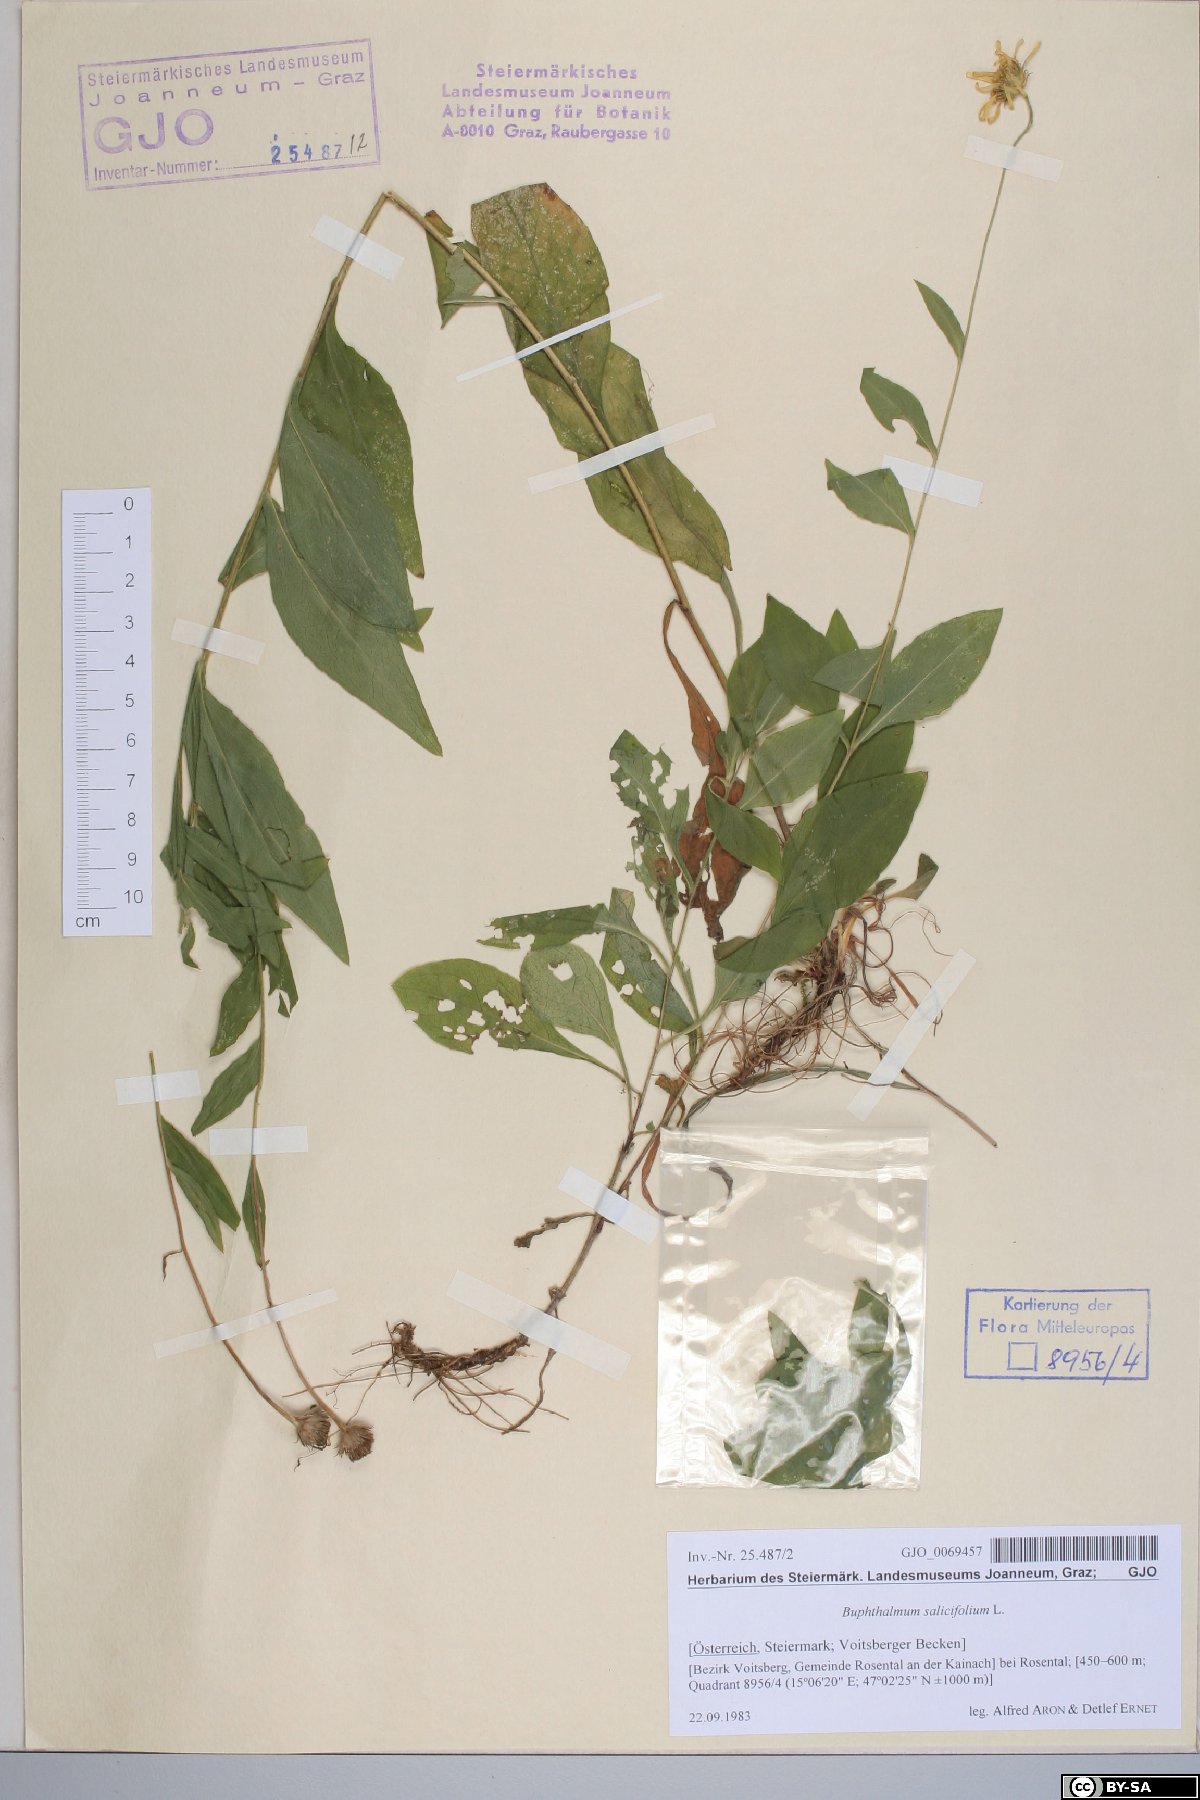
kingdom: Plantae
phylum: Tracheophyta
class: Magnoliopsida
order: Asterales
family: Asteraceae
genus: Buphthalmum
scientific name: Buphthalmum salicifolium
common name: Willow-leaved yellow-oxeye
